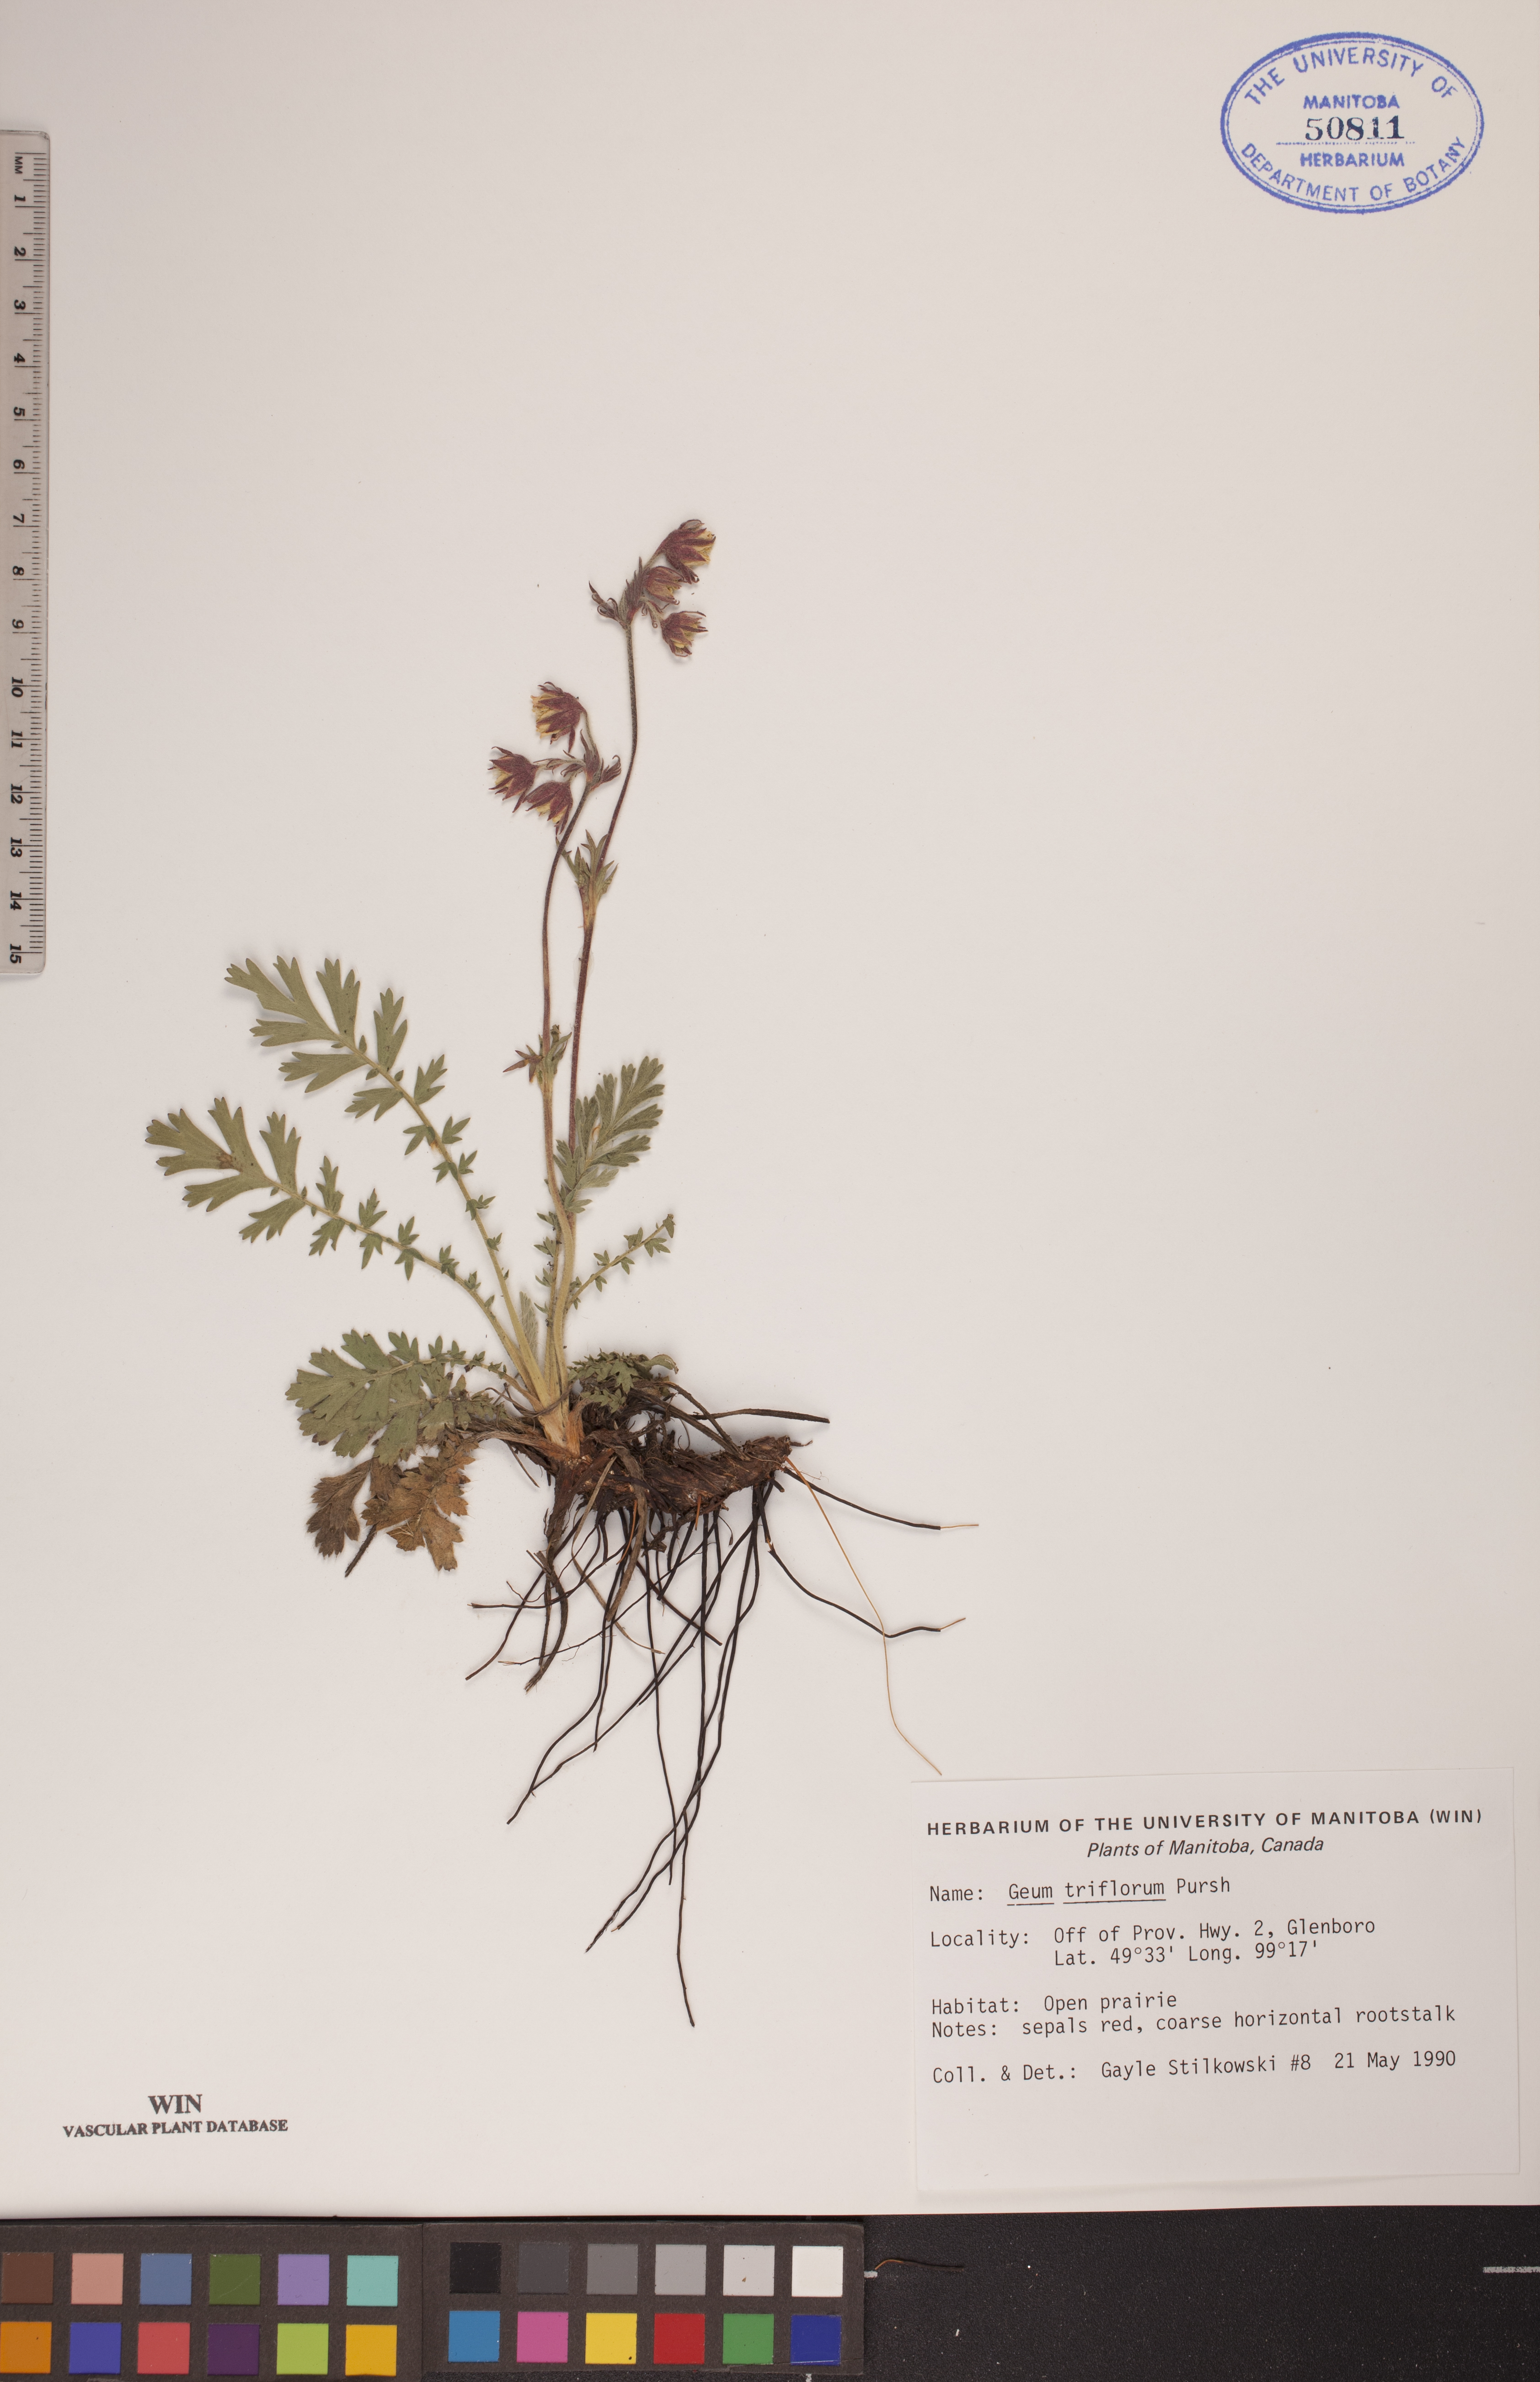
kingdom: Plantae
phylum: Tracheophyta
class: Magnoliopsida
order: Rosales
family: Rosaceae
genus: Geum
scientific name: Geum triflorum
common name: Old man's whiskers
